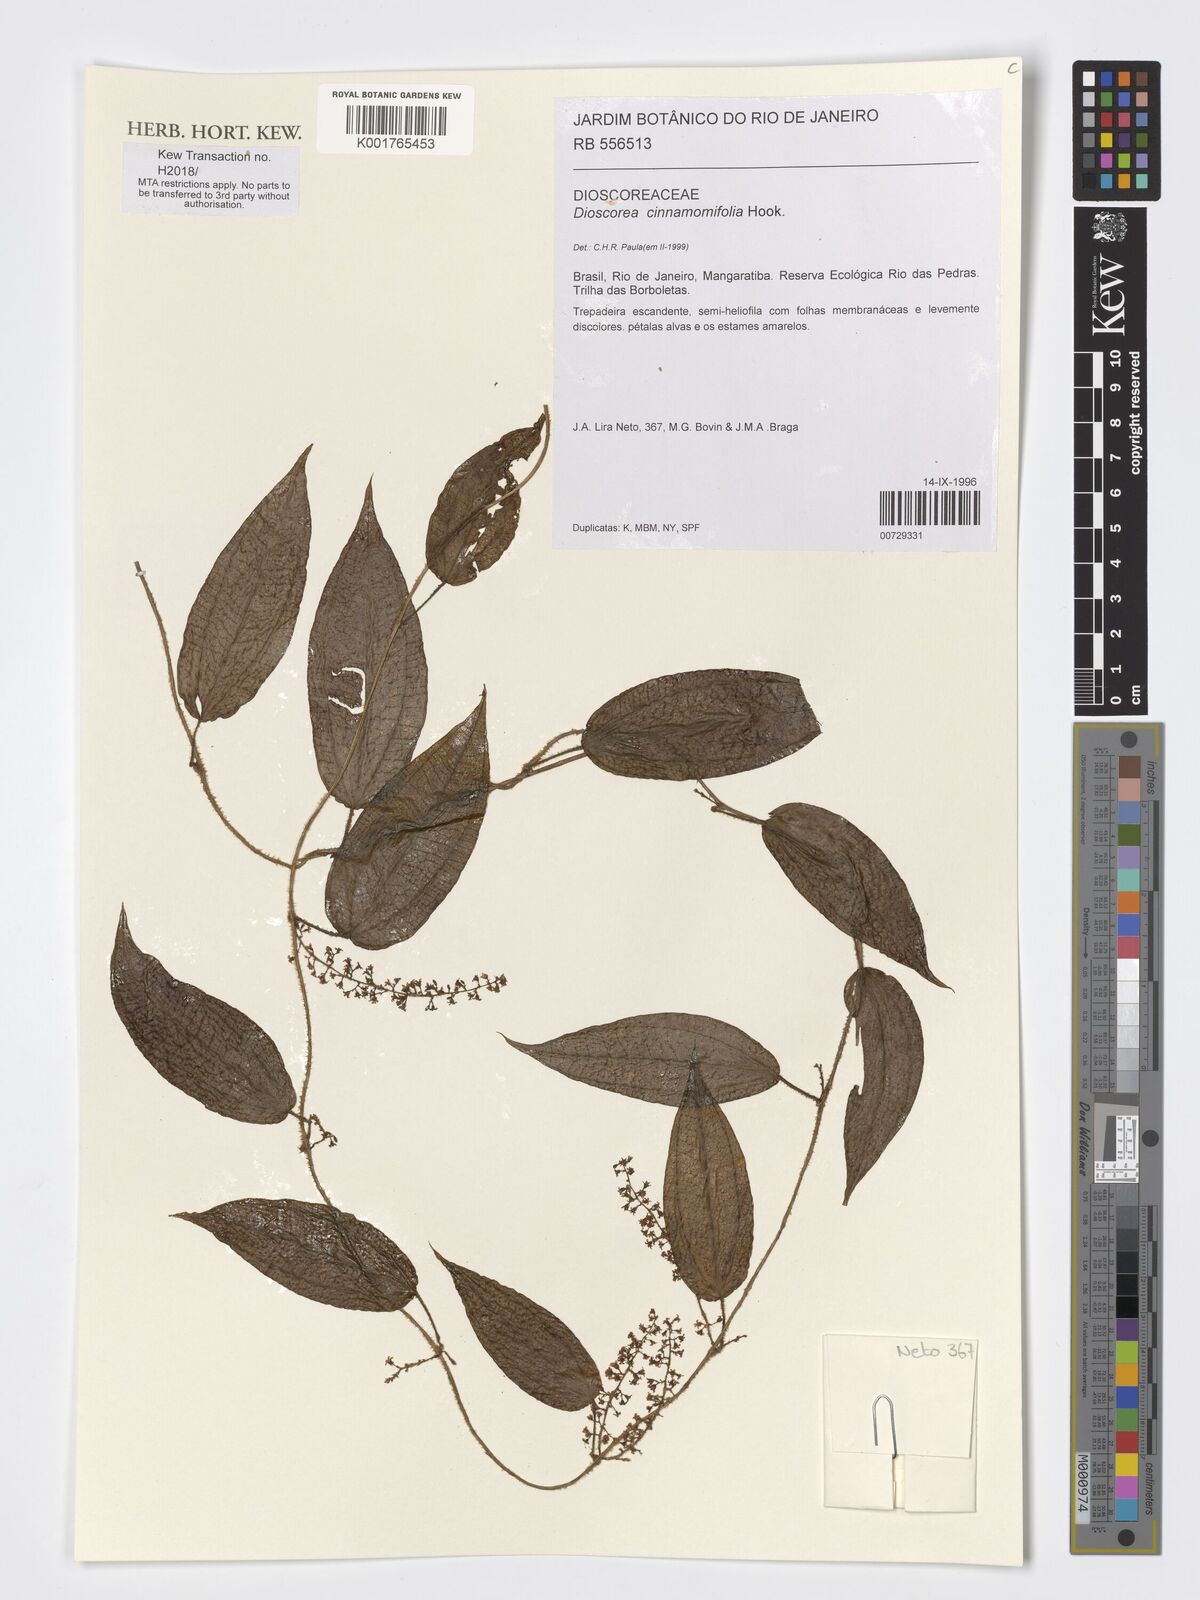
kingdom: Plantae
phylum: Tracheophyta
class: Liliopsida
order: Dioscoreales
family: Dioscoreaceae
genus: Dioscorea
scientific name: Dioscorea cinnamomifolia
